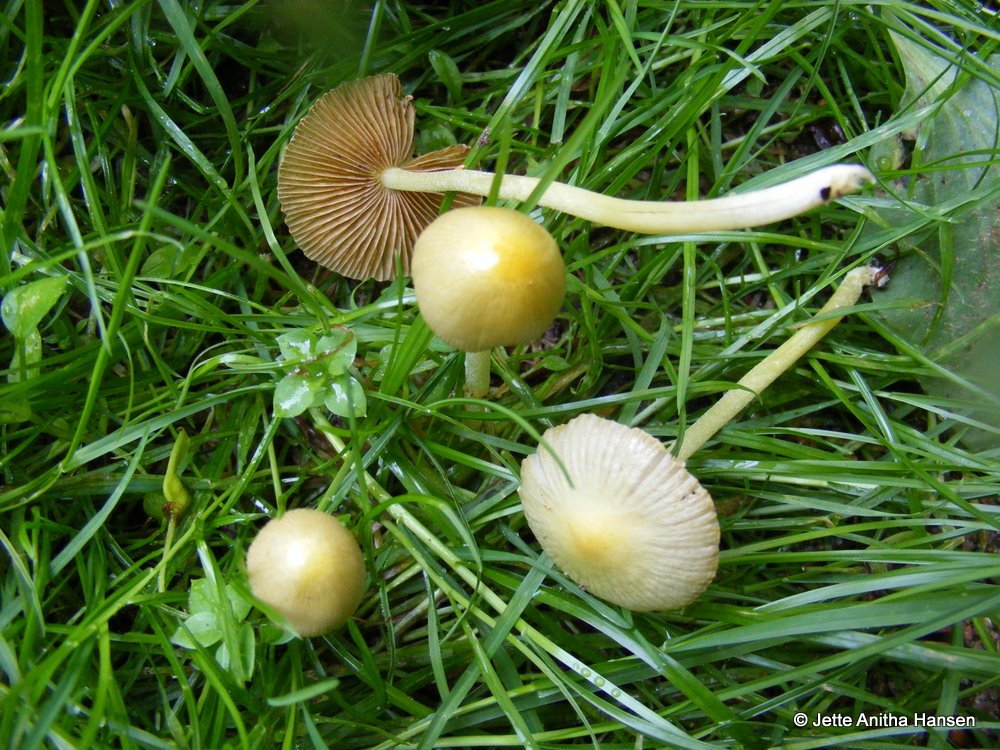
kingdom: Fungi
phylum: Basidiomycota
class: Agaricomycetes
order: Agaricales
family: Bolbitiaceae
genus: Bolbitius
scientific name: Bolbitius titubans
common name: almindelig gulhat
